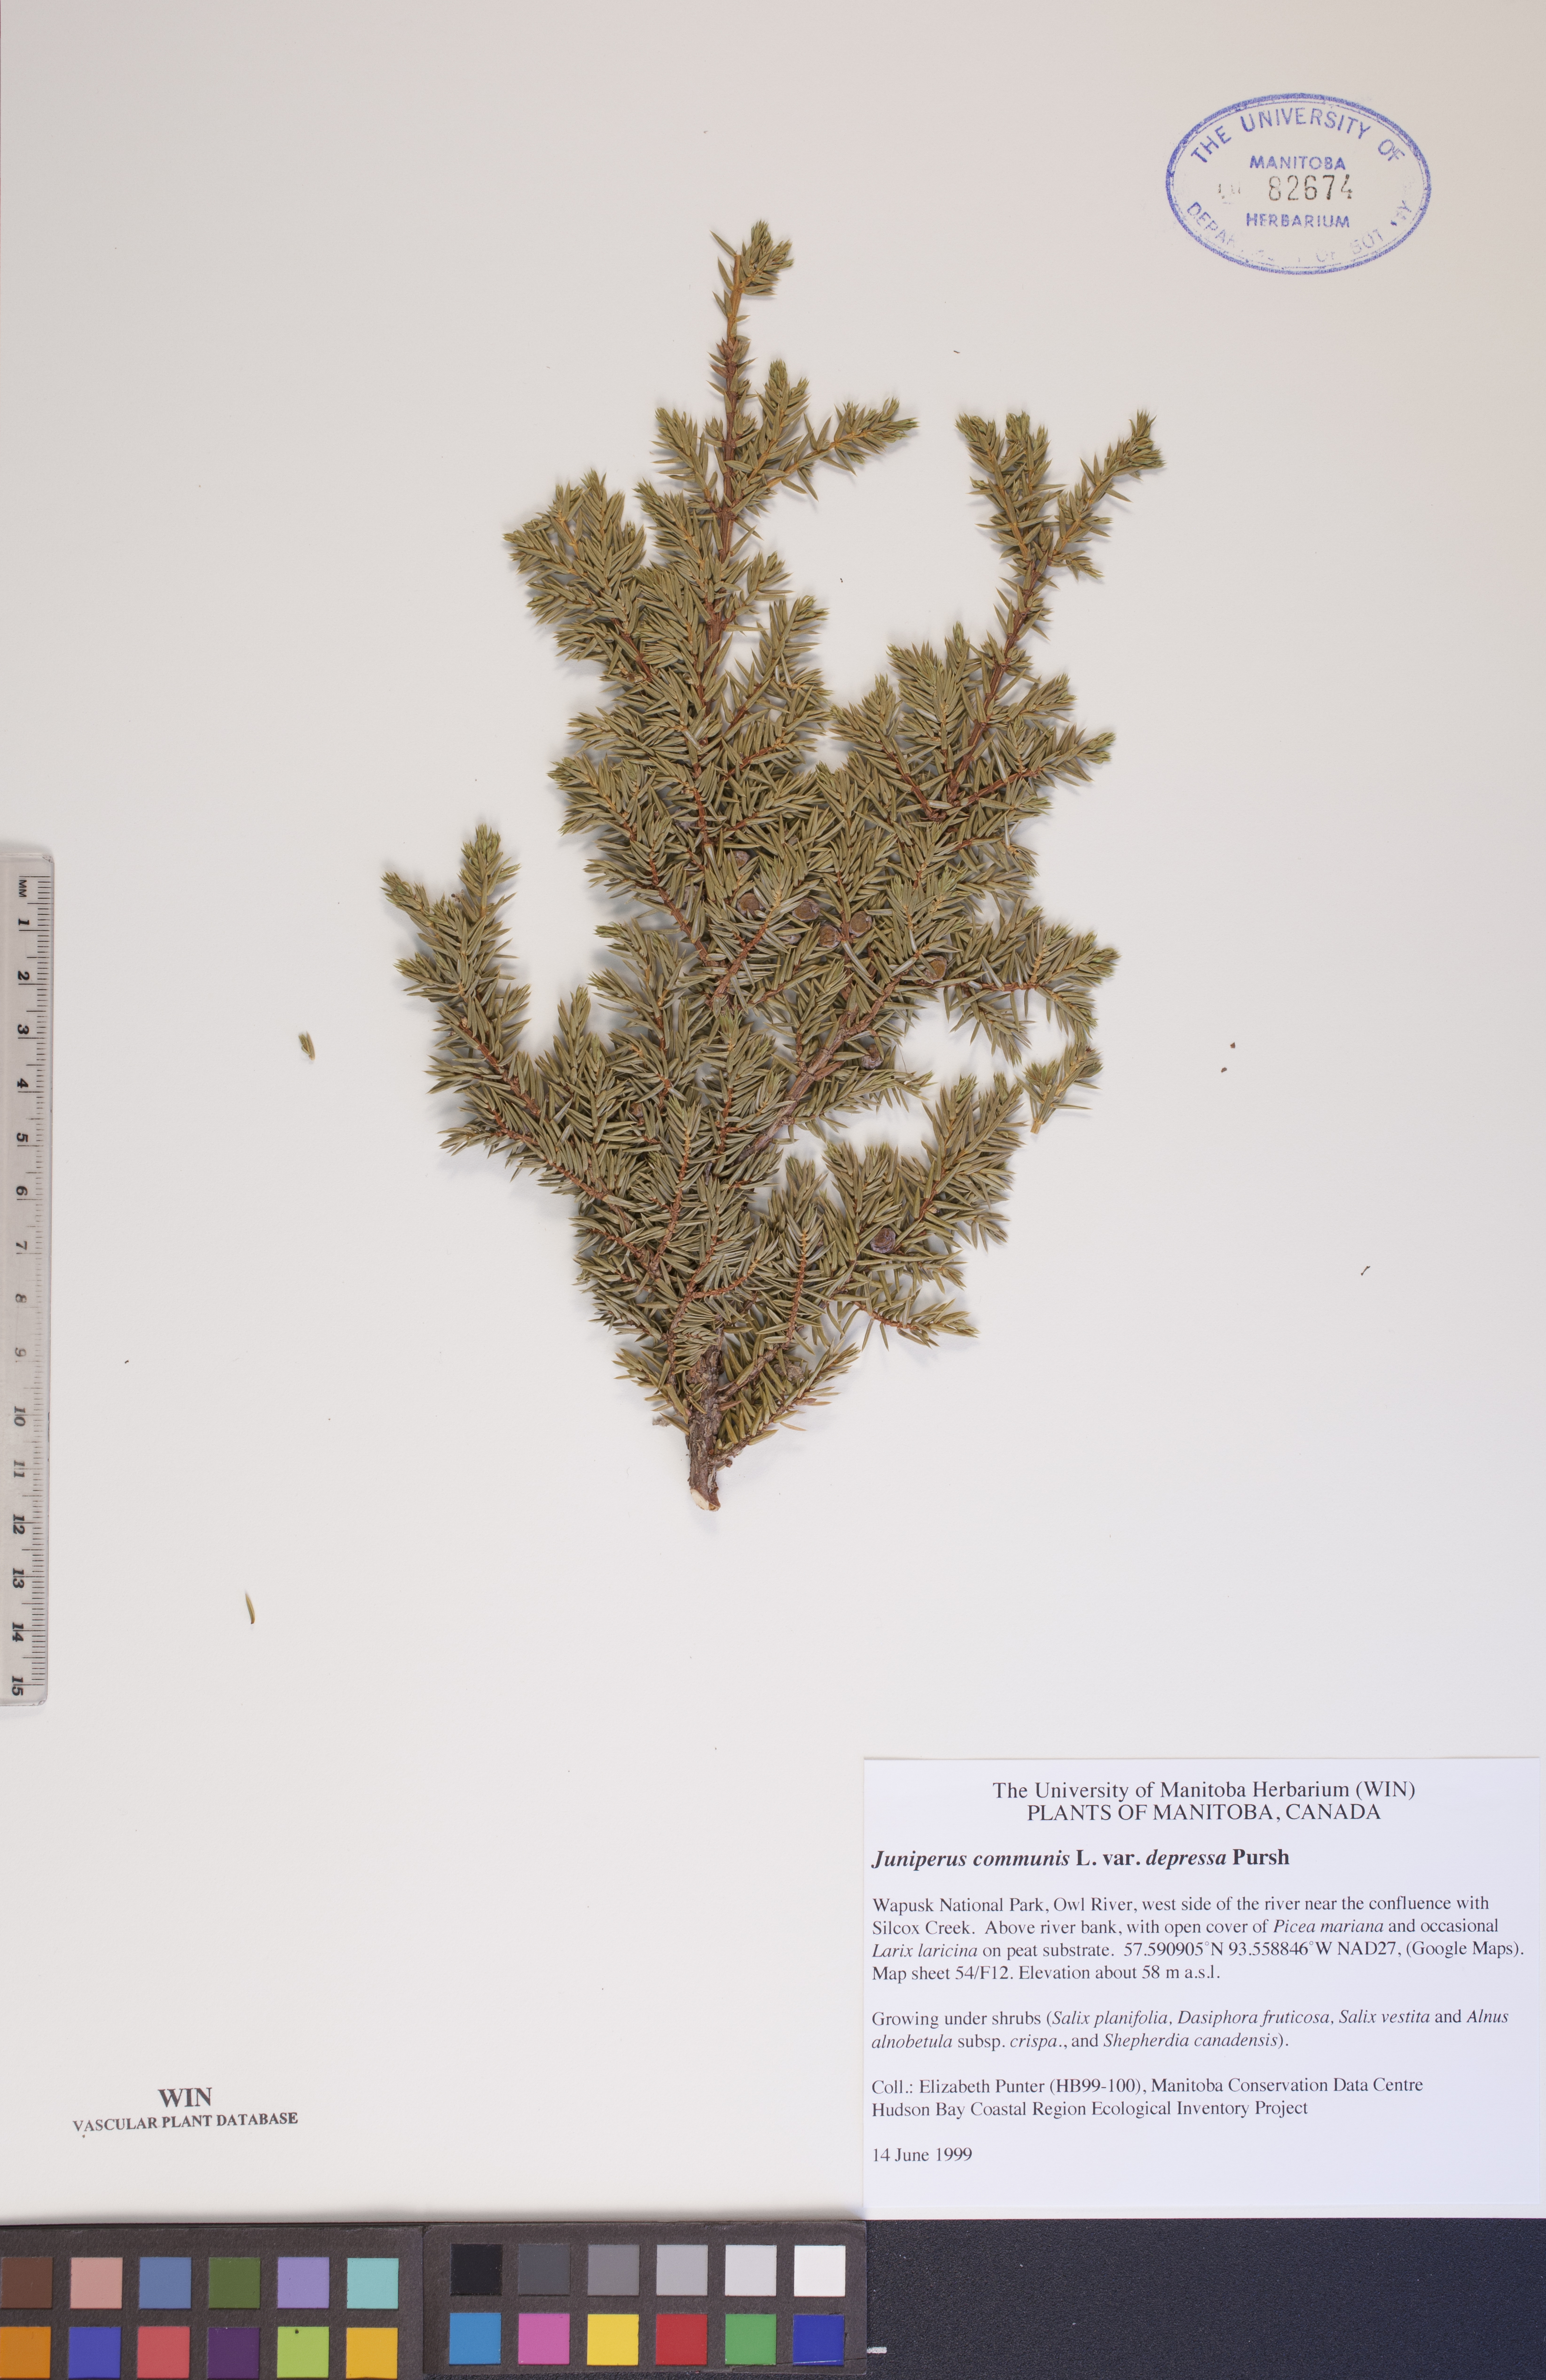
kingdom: Plantae
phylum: Tracheophyta
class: Pinopsida
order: Pinales
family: Cupressaceae
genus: Juniperus
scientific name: Juniperus communis
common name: Common juniper
